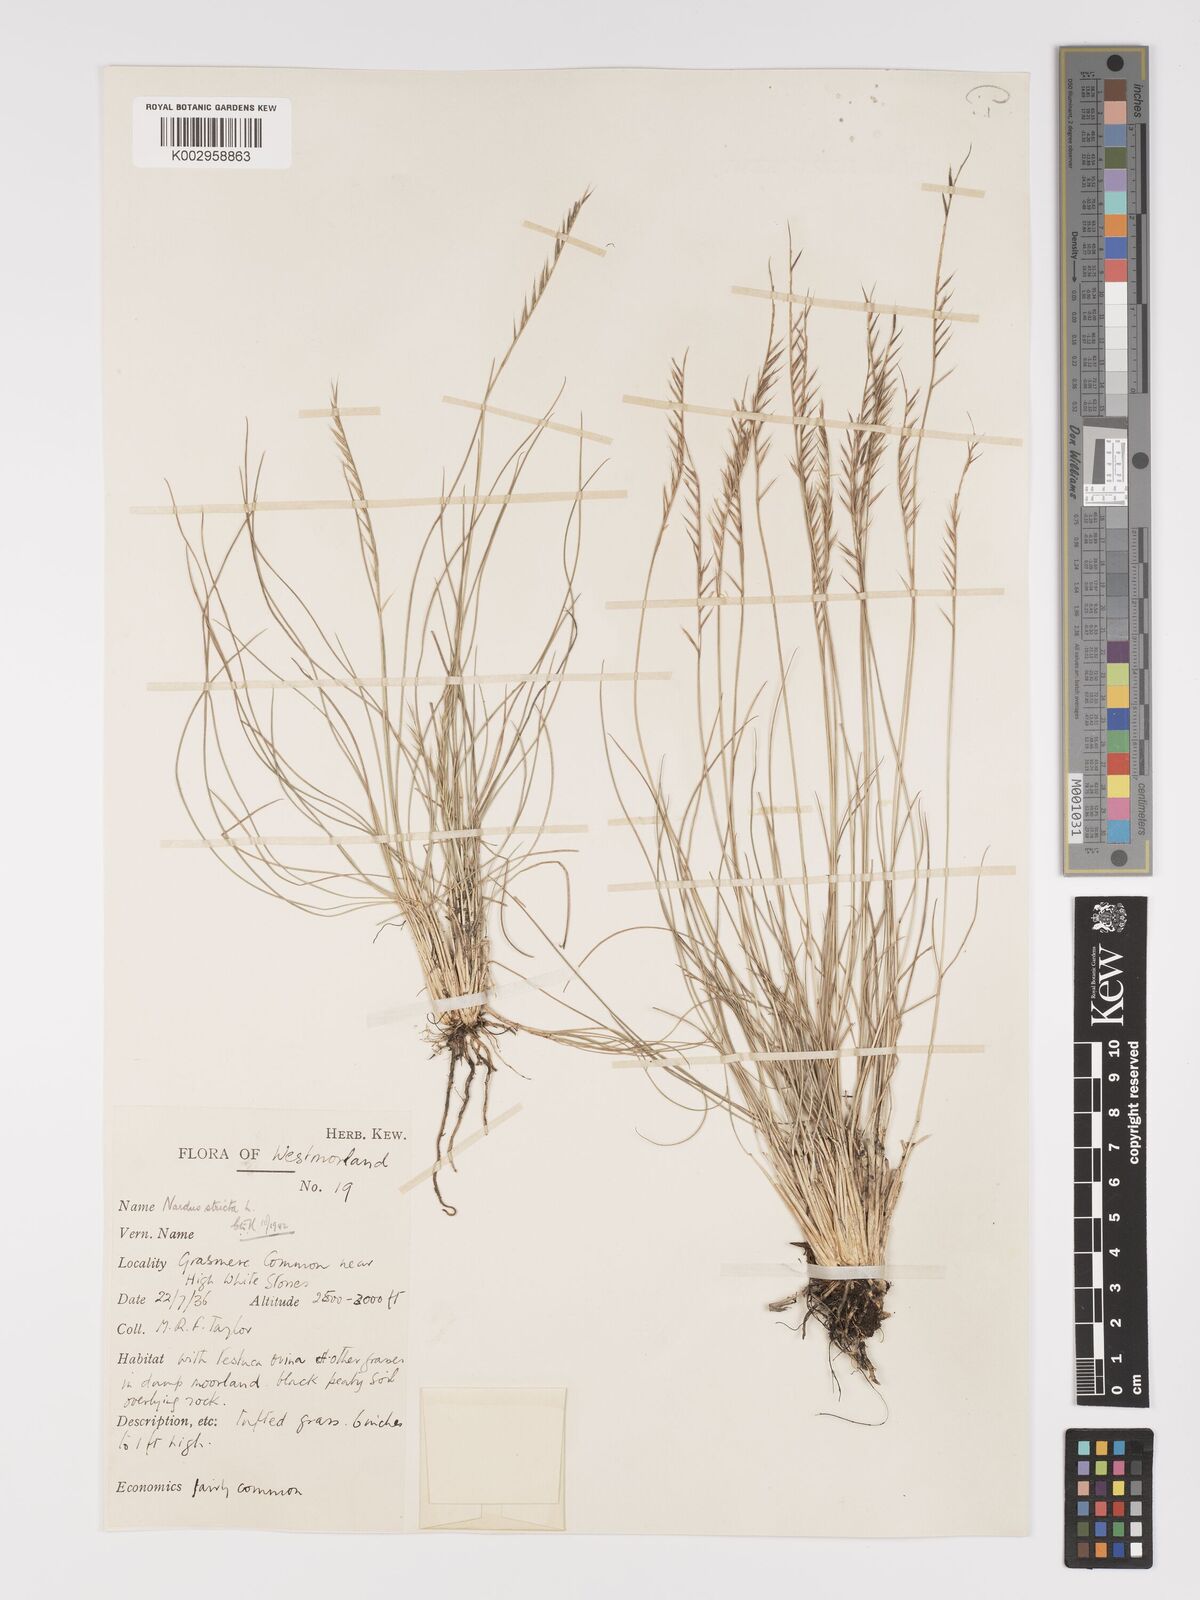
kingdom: Plantae
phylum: Tracheophyta
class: Liliopsida
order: Poales
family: Poaceae
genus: Nardus
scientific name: Nardus stricta
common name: Mat-grass
